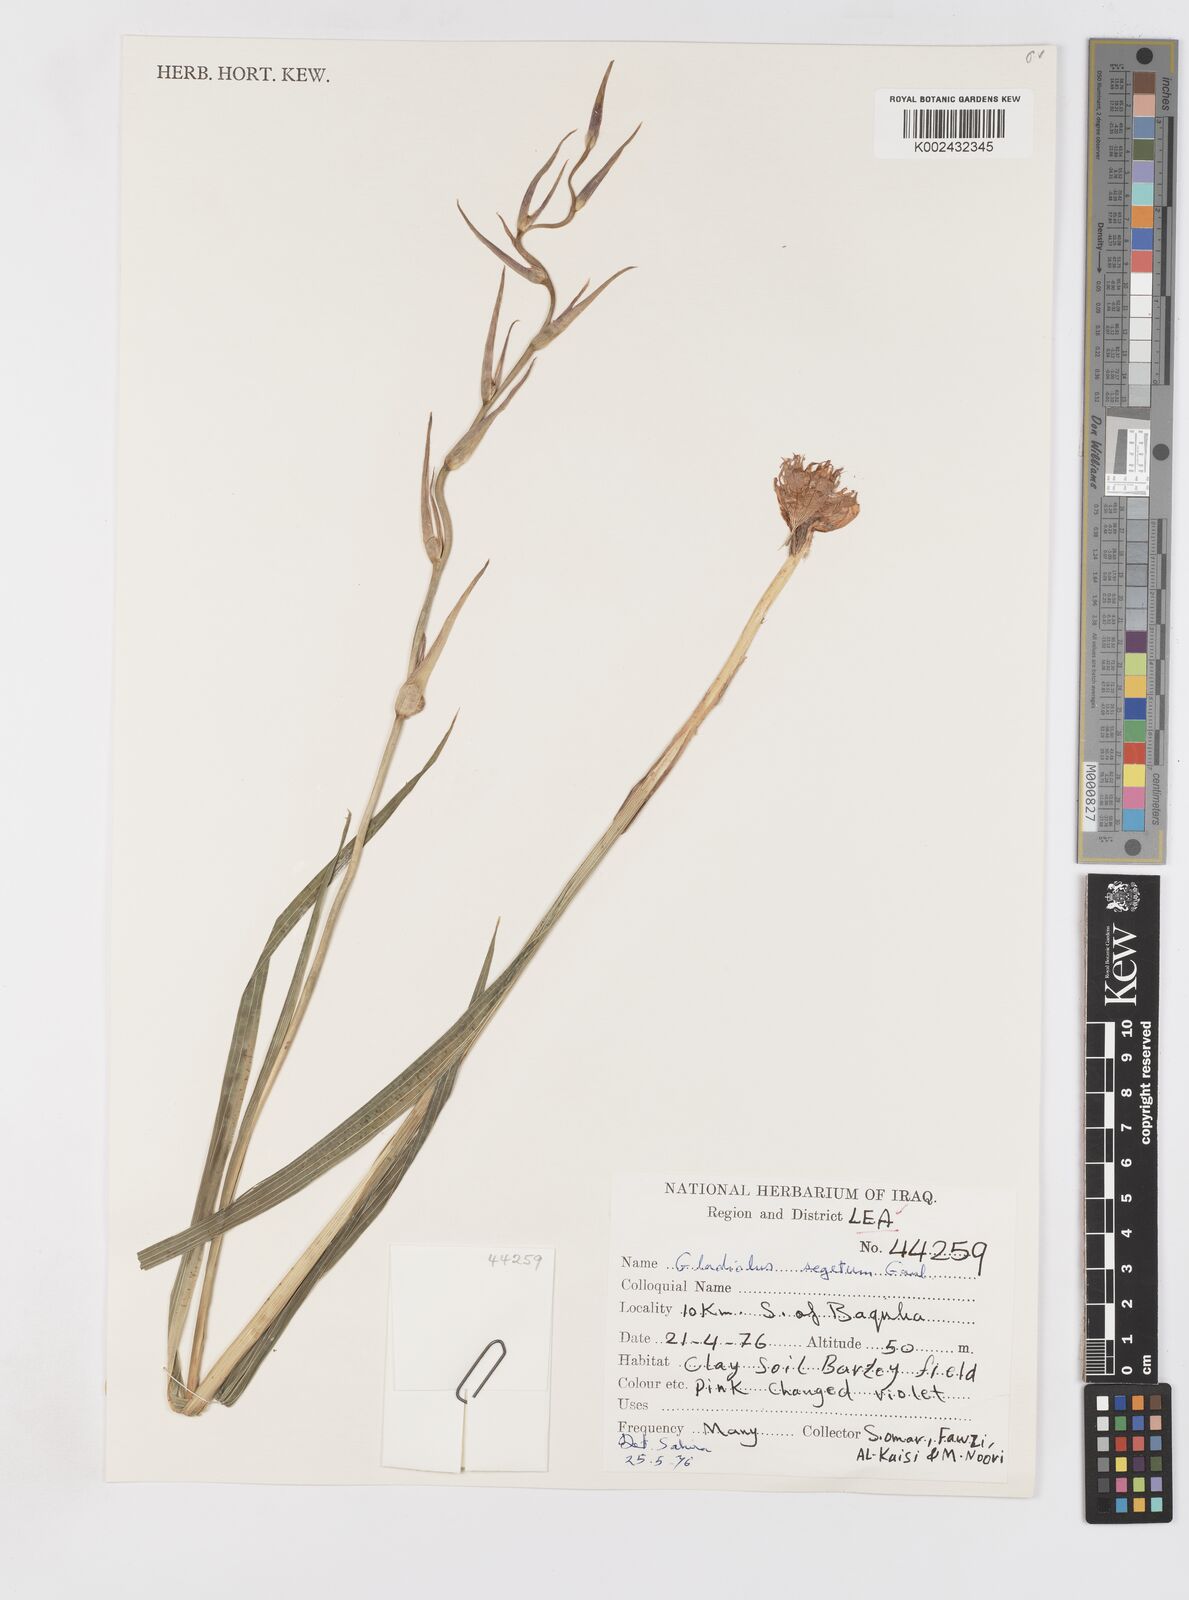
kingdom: Plantae
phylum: Tracheophyta
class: Liliopsida
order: Asparagales
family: Iridaceae
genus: Gladiolus
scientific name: Gladiolus italicus
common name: Field gladiolus
